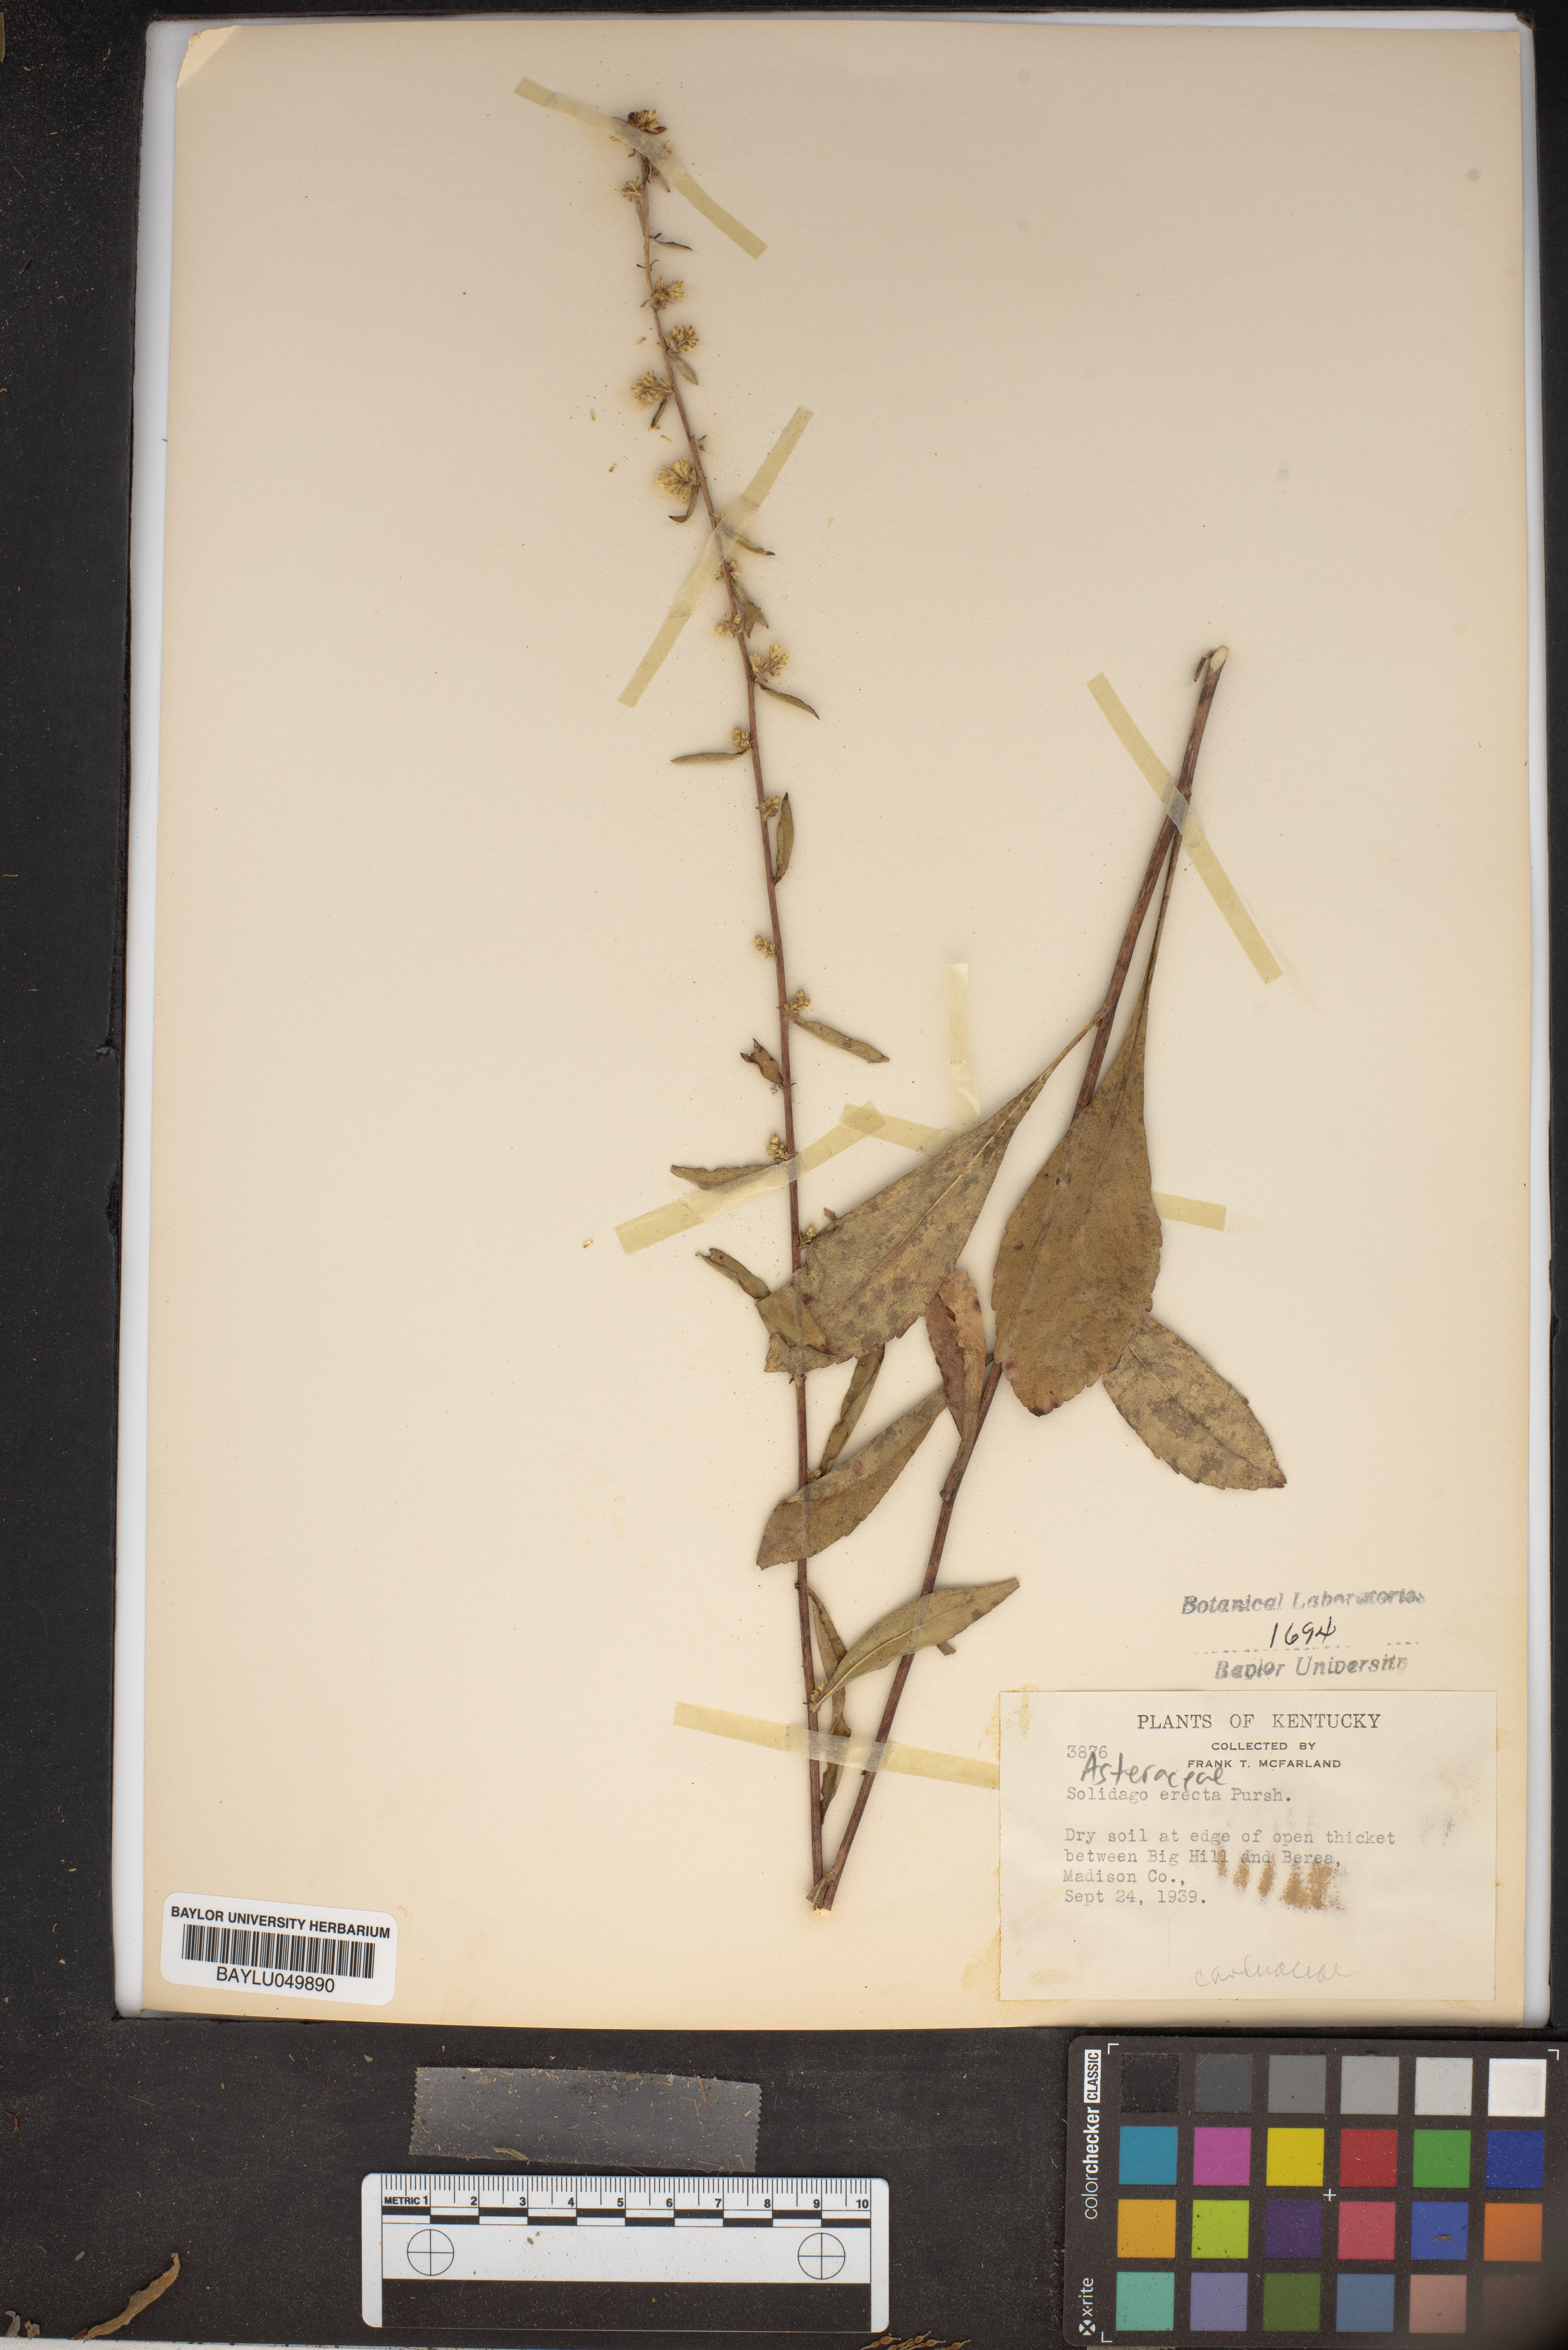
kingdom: Plantae
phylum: Tracheophyta
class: Magnoliopsida
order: Asterales
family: Asteraceae
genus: Solidago
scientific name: Solidago erecta
